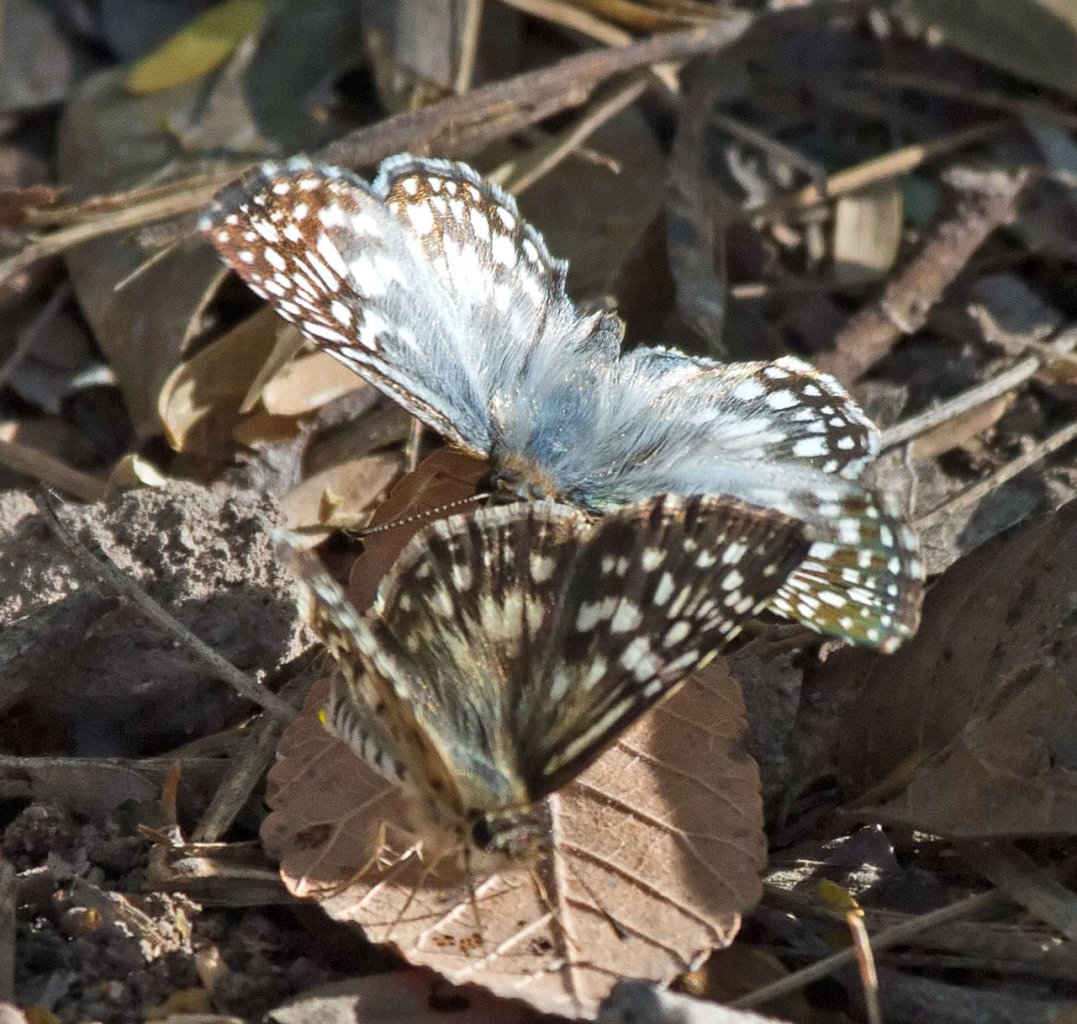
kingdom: Animalia
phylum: Arthropoda
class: Insecta
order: Lepidoptera
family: Hesperiidae
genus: Pyrgus
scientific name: Pyrgus oileus
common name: Tropical Checkered-Skipper
